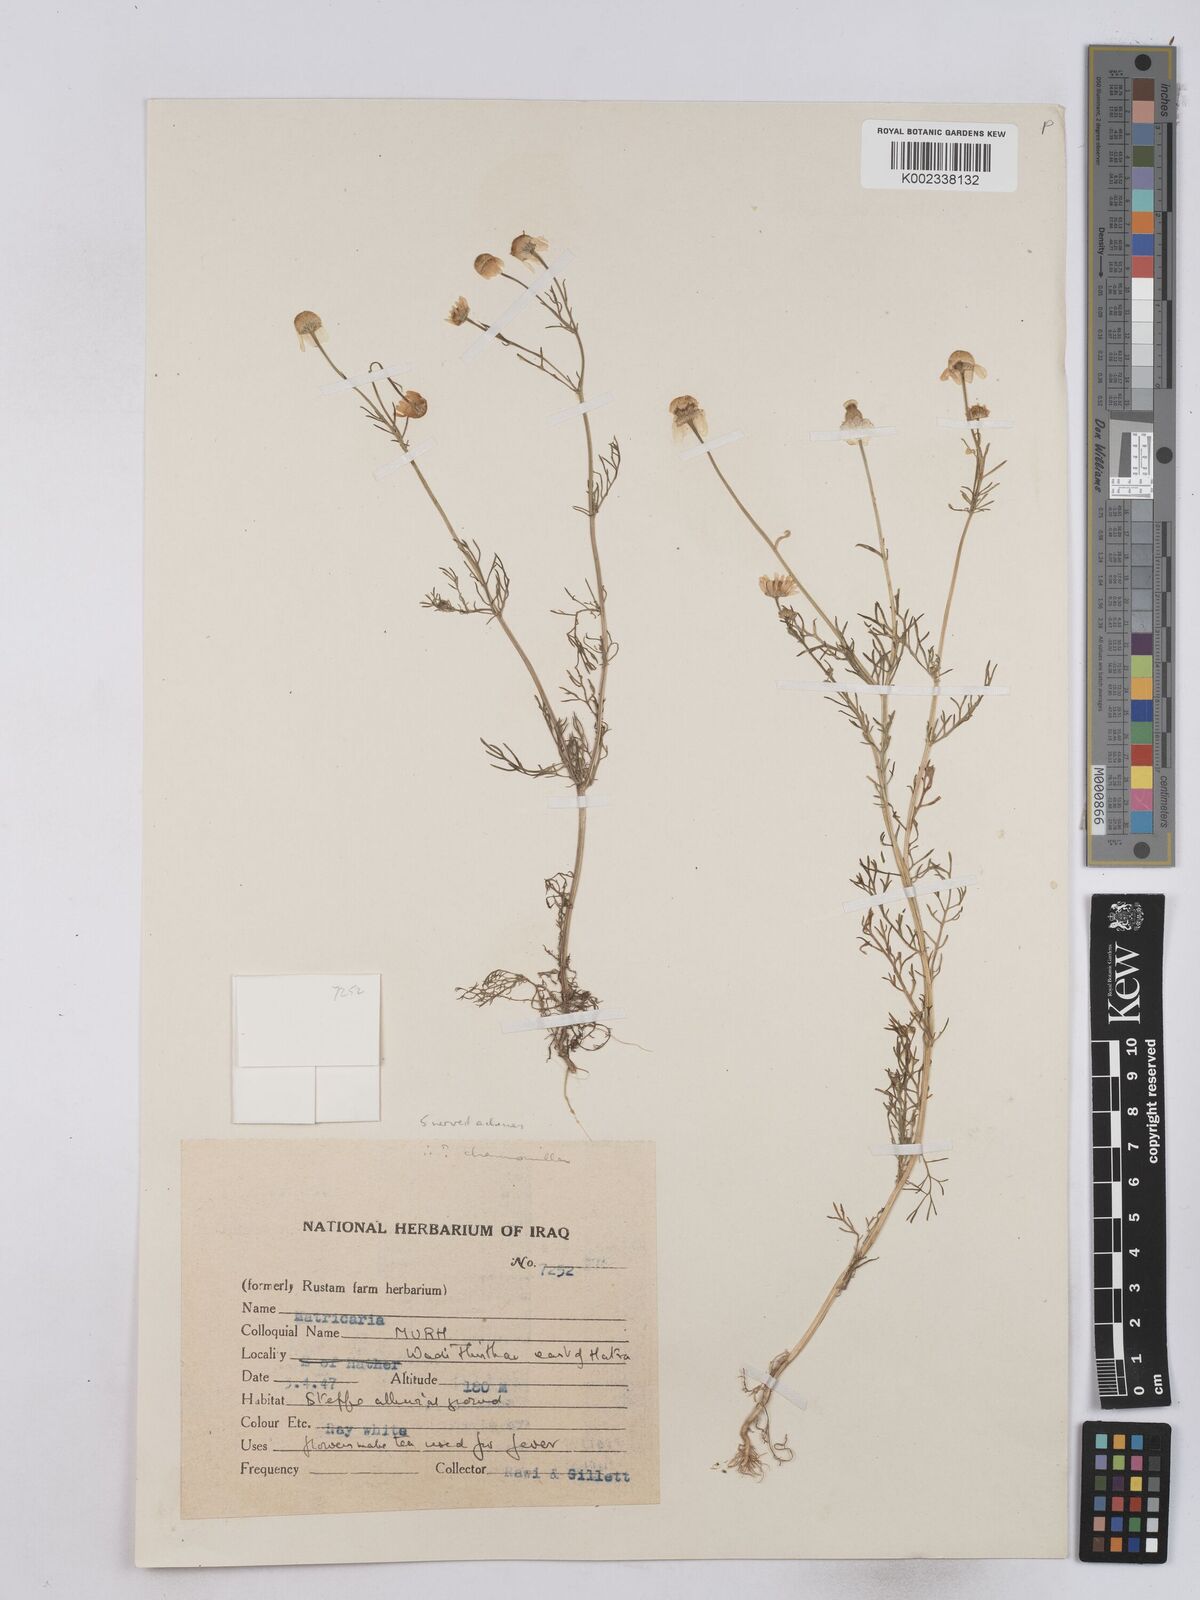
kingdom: Plantae
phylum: Tracheophyta
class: Magnoliopsida
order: Asterales
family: Asteraceae
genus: Matricaria
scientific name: Matricaria chamomilla
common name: Scented mayweed
